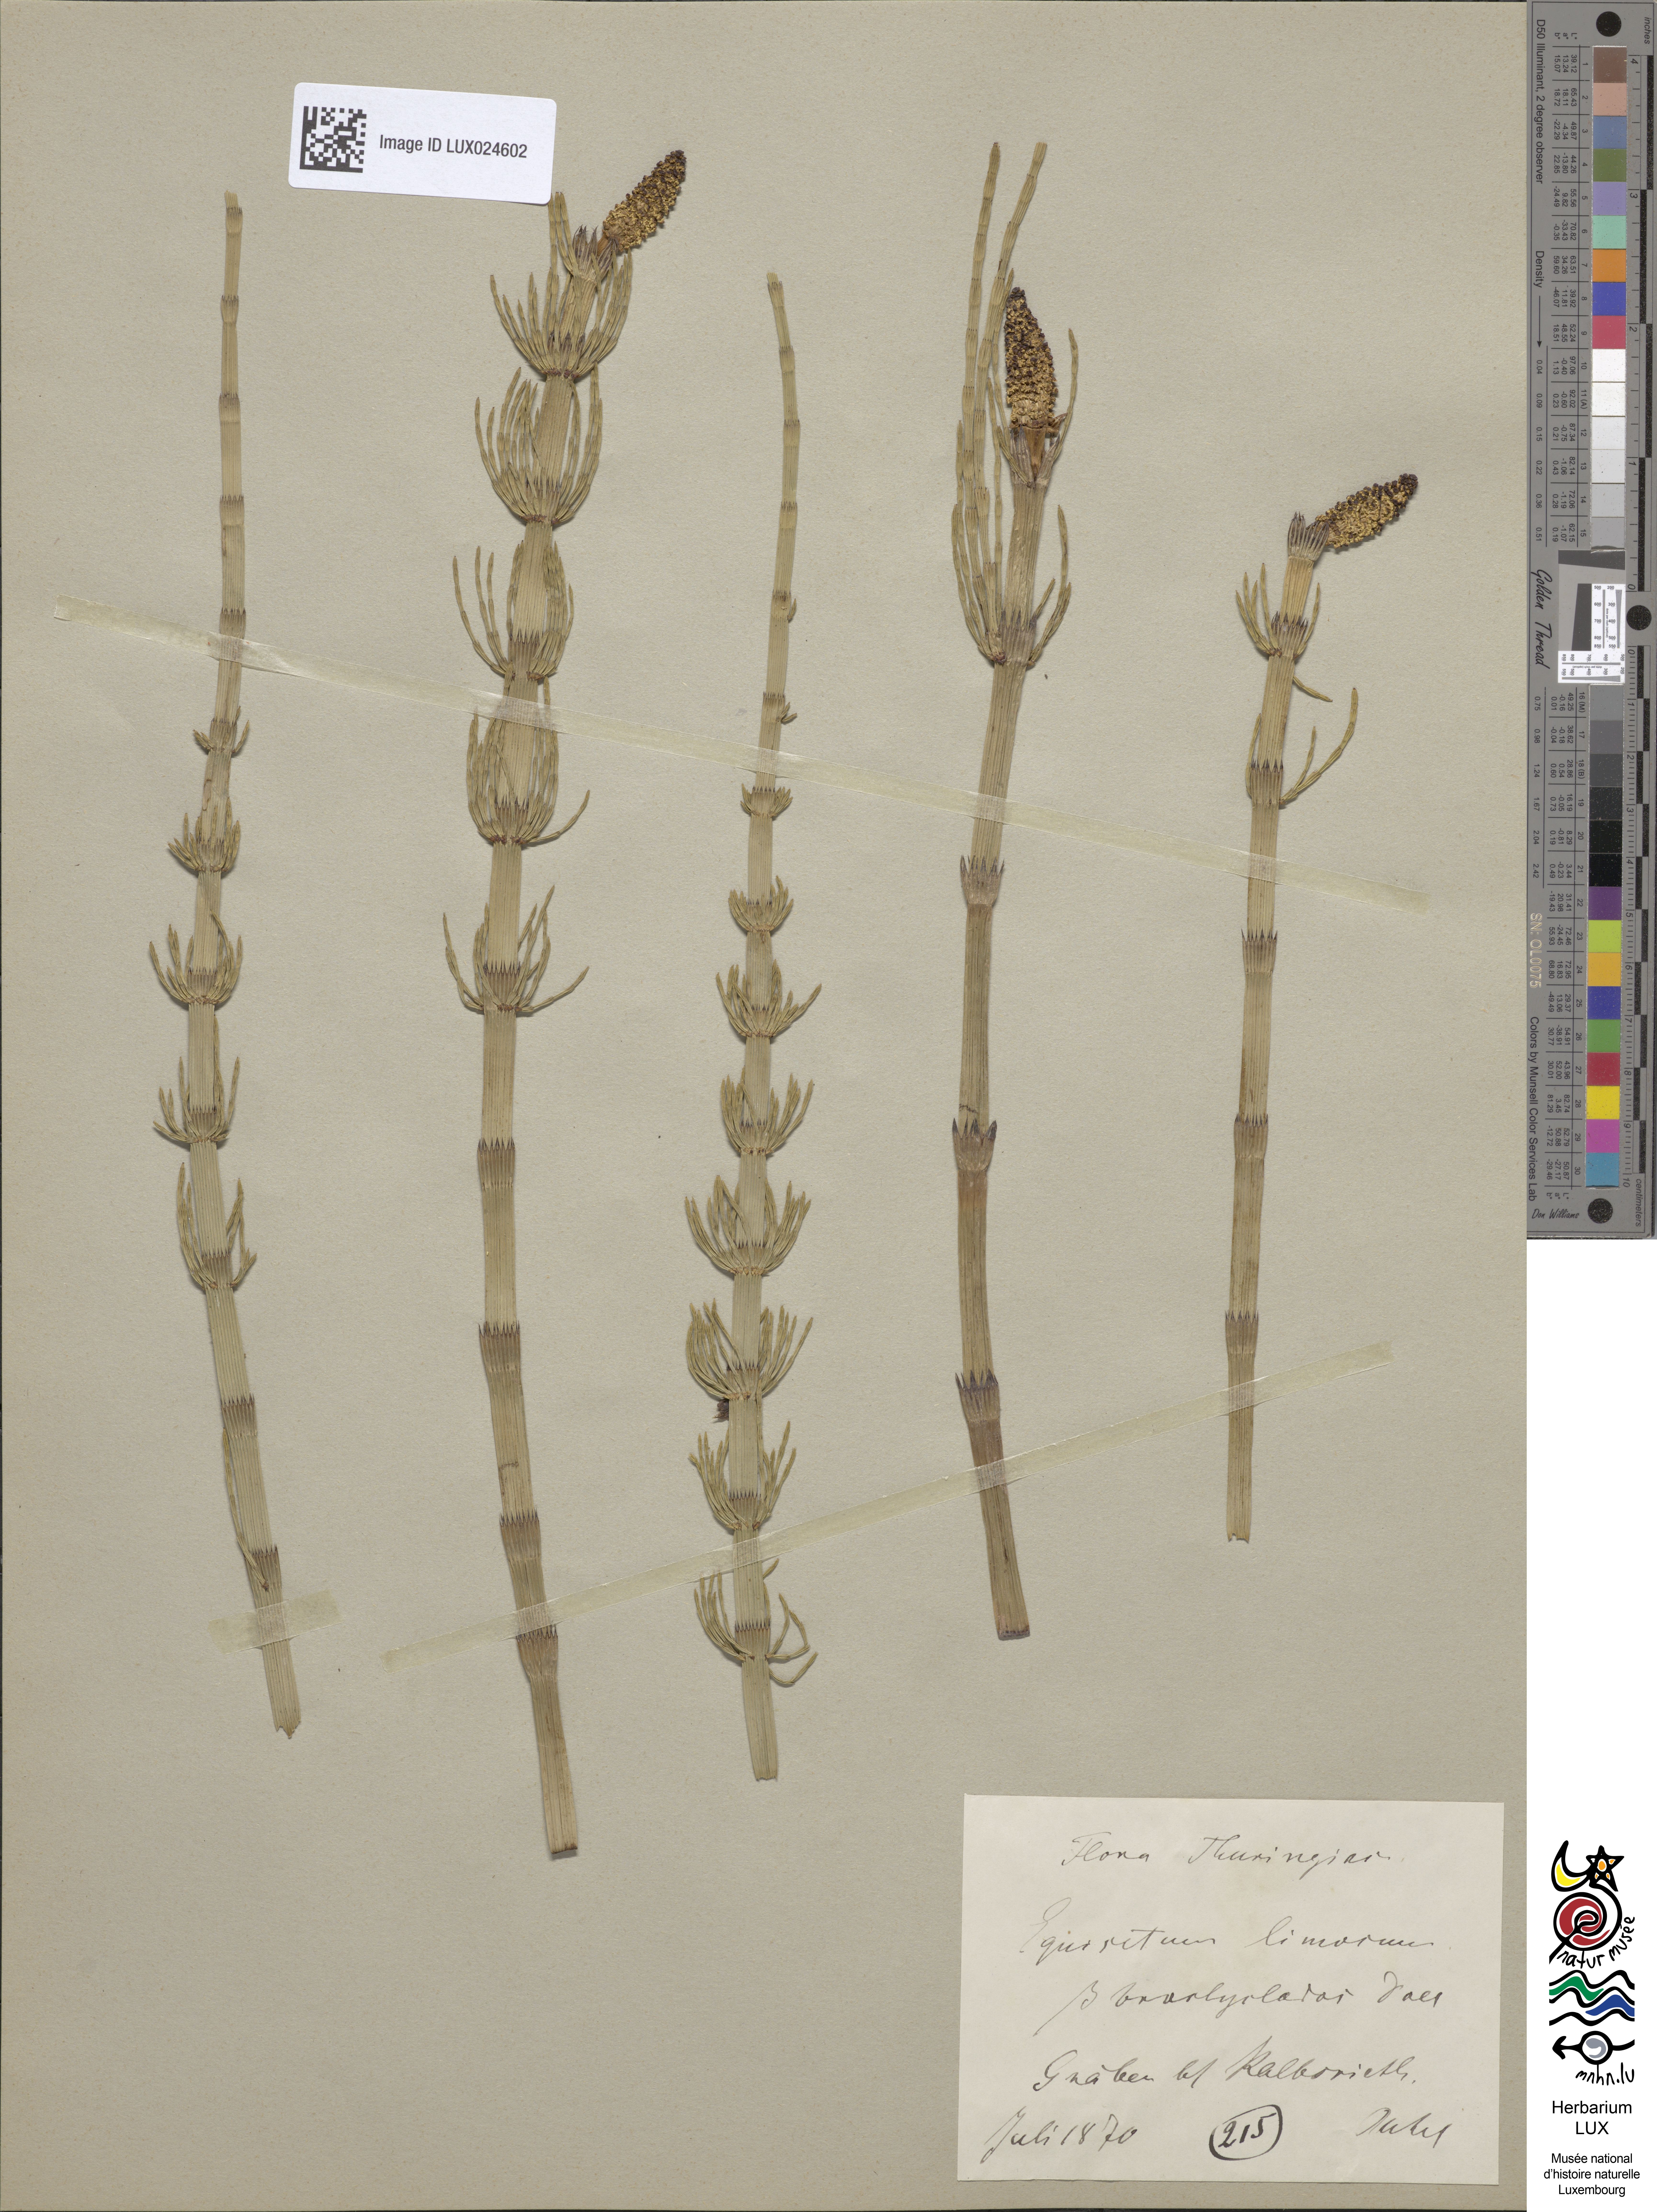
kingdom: Plantae
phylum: Tracheophyta
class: Polypodiopsida
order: Equisetales
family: Equisetaceae
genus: Equisetum
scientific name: Equisetum fluviatile
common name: Water horsetail
